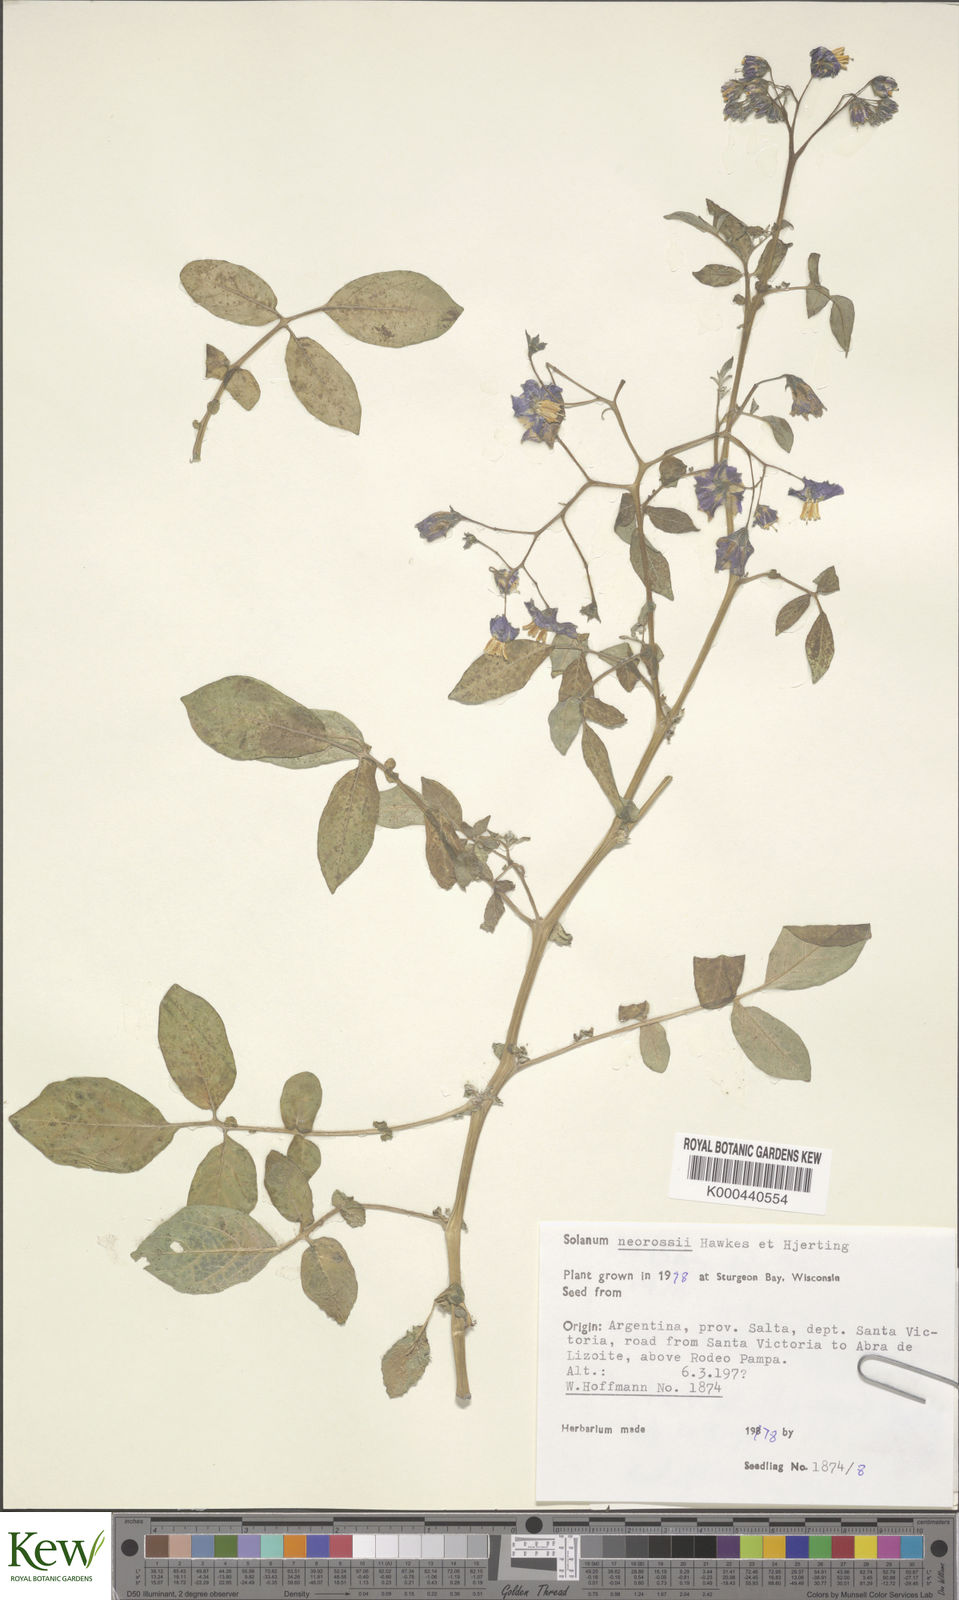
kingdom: Plantae
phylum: Tracheophyta
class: Magnoliopsida
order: Solanales
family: Solanaceae
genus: Solanum
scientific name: Solanum neorossii
